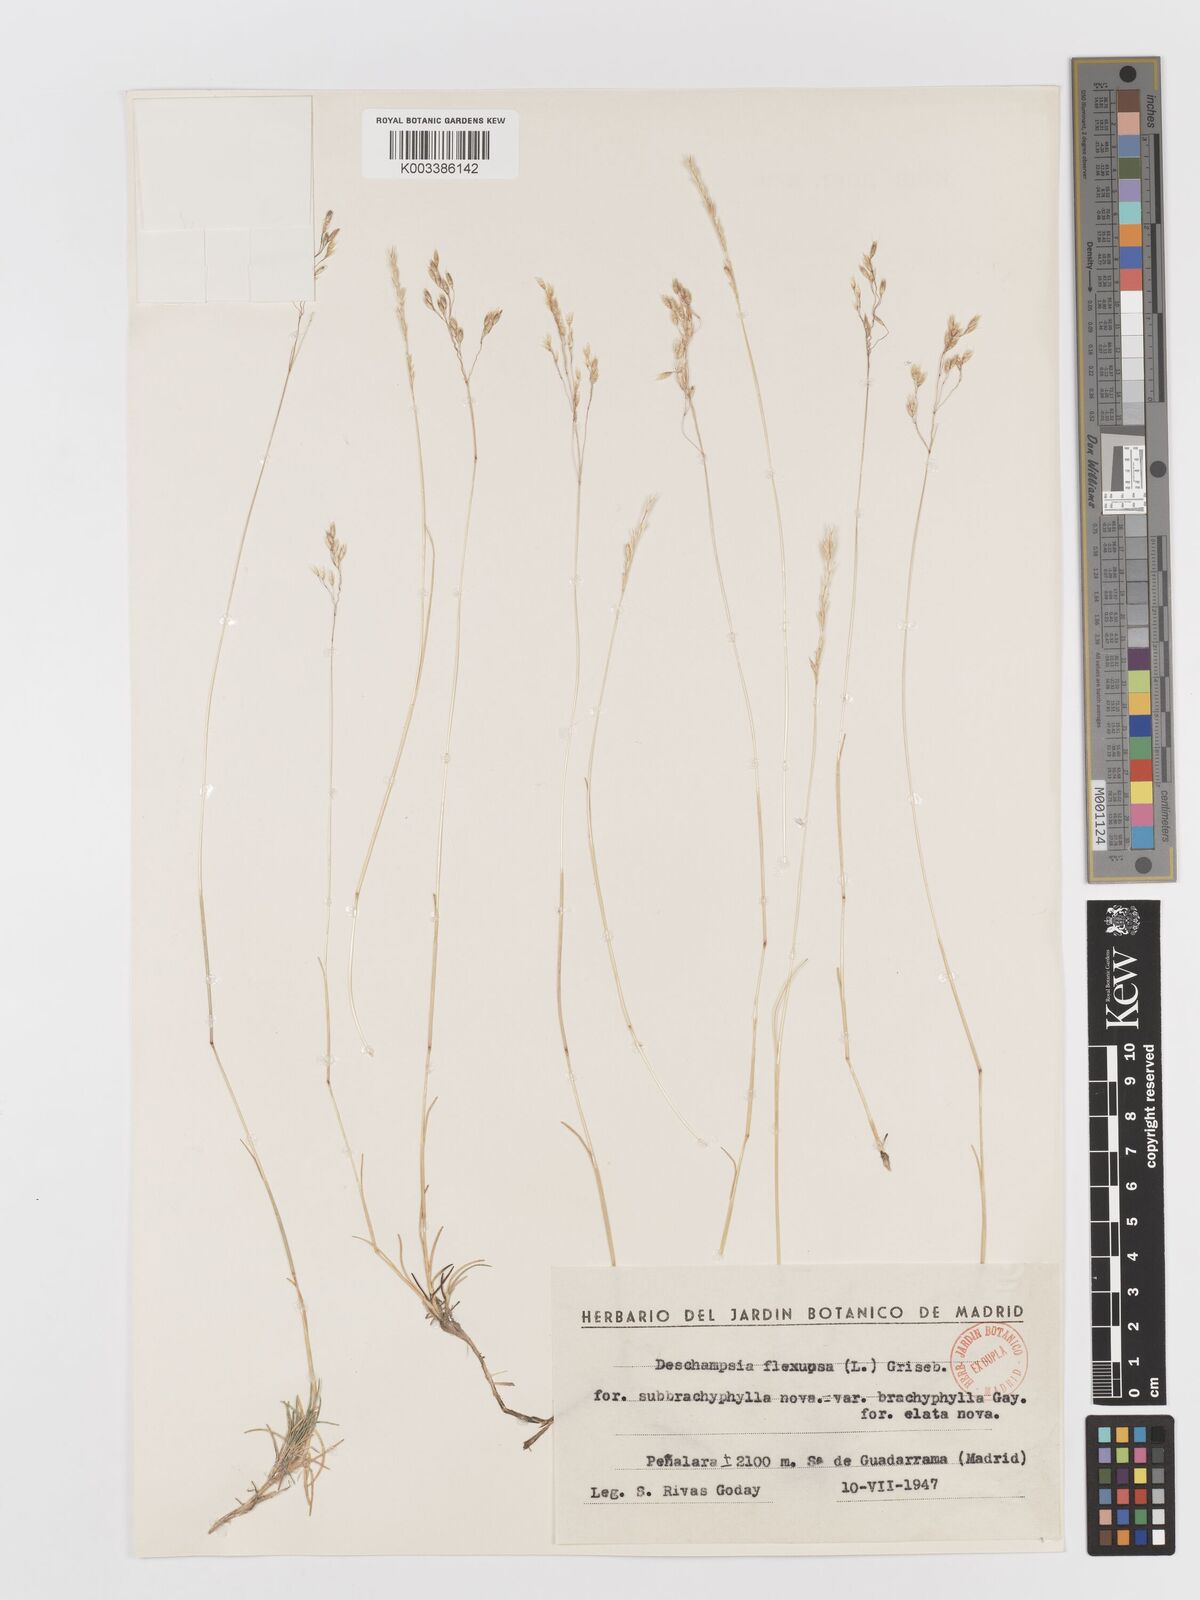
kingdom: Plantae
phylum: Tracheophyta
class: Liliopsida
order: Poales
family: Poaceae
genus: Avenella
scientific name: Avenella flexuosa
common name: Wavy hairgrass
